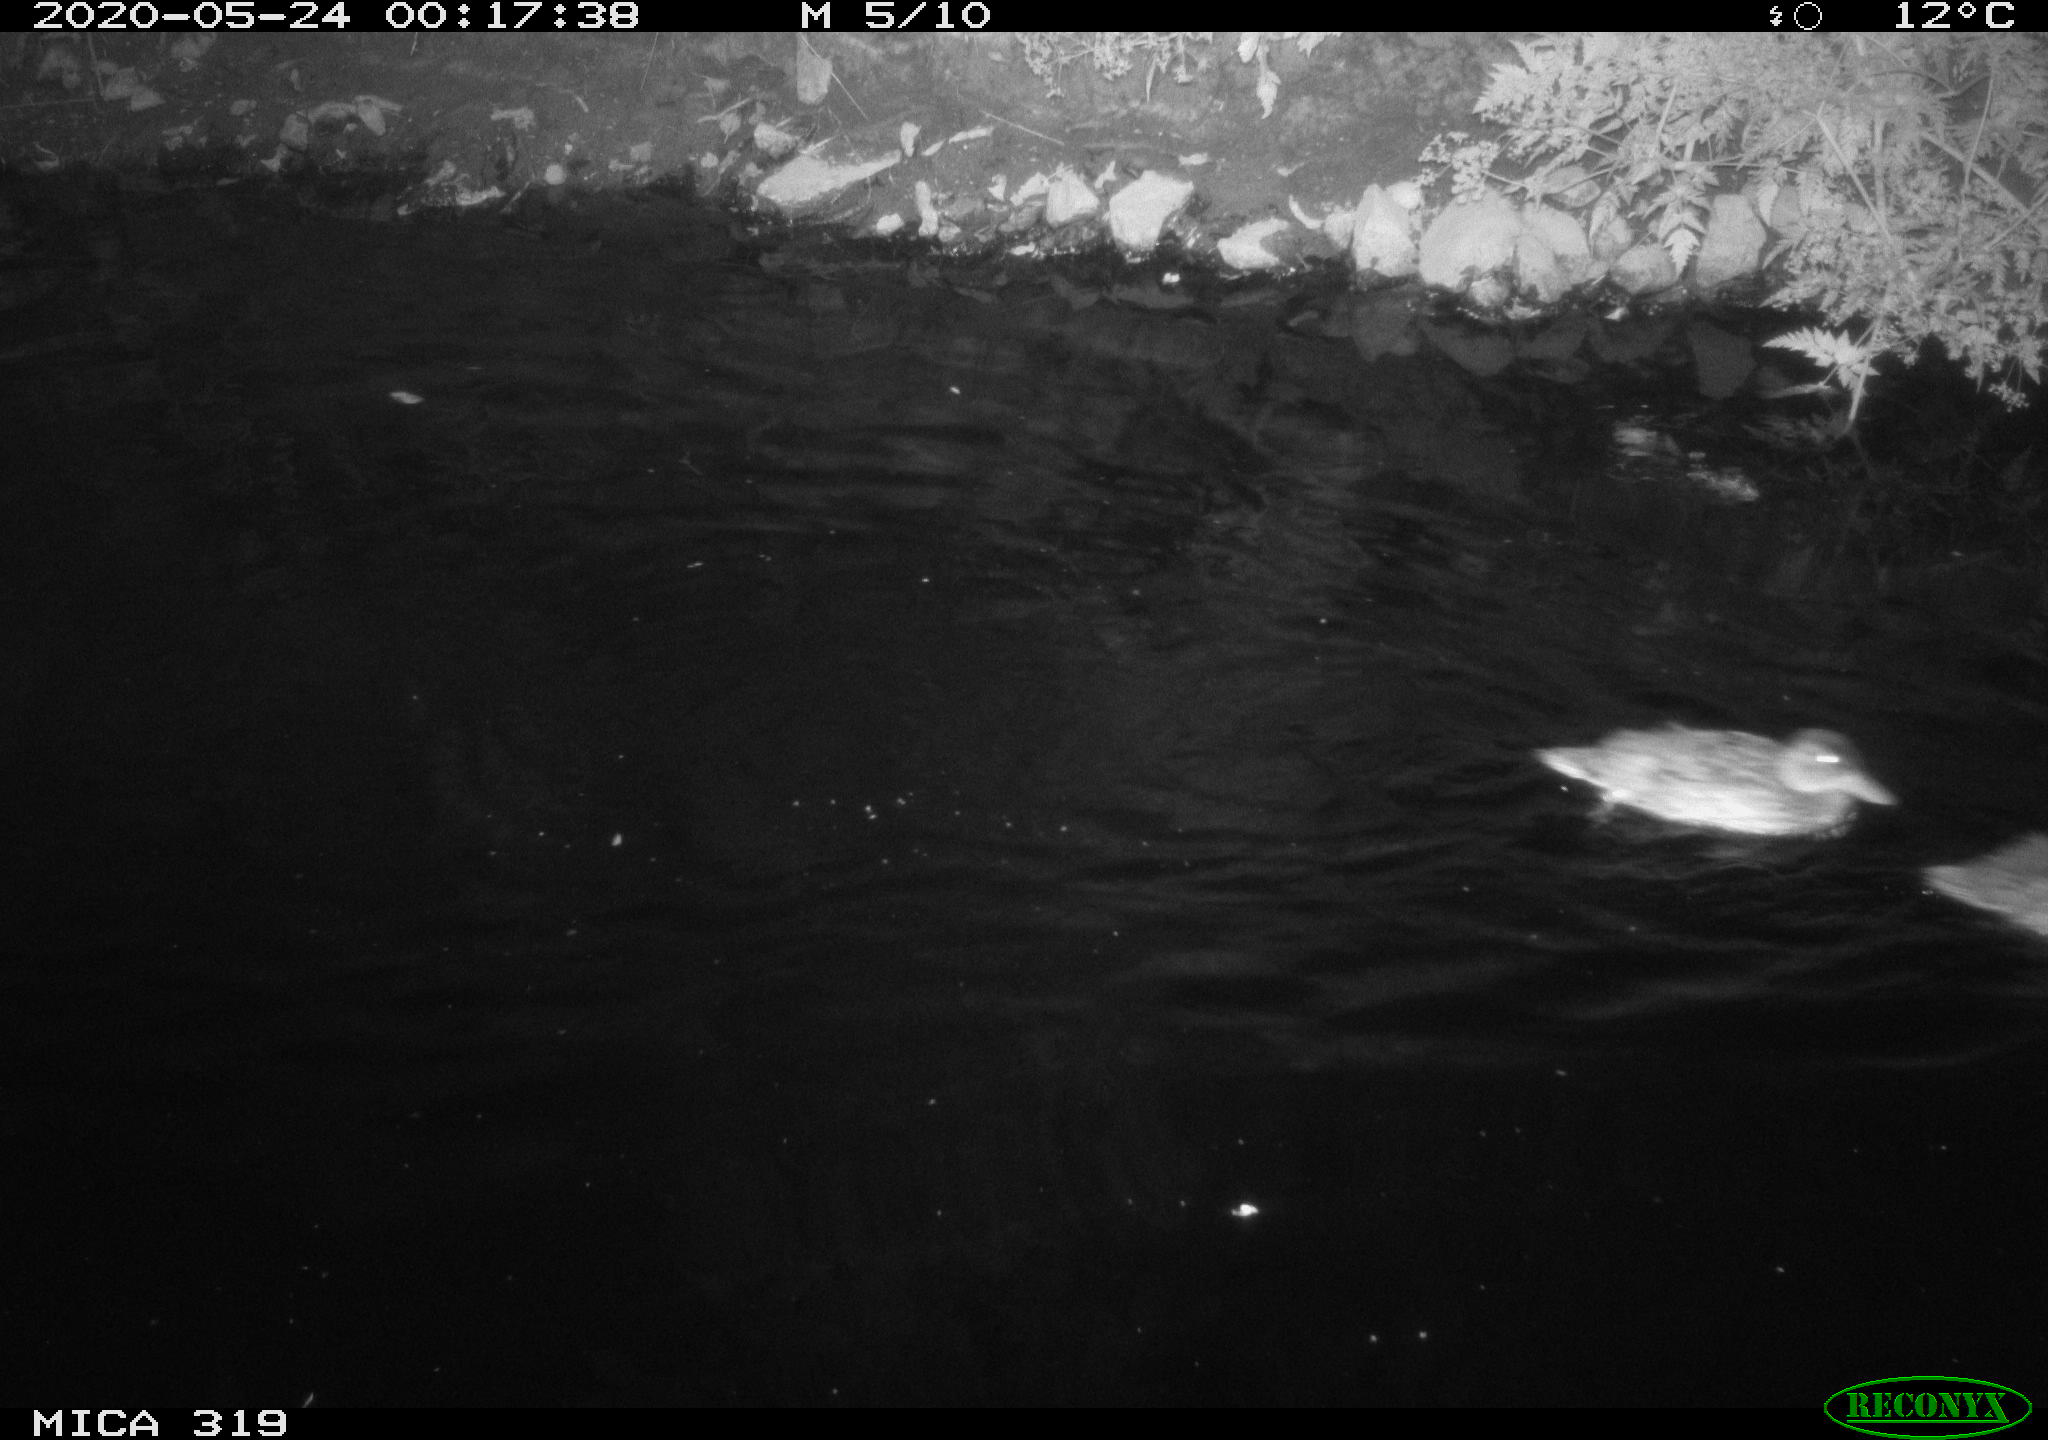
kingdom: Animalia
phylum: Chordata
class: Aves
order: Anseriformes
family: Anatidae
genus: Anas
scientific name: Anas platyrhynchos
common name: Mallard
